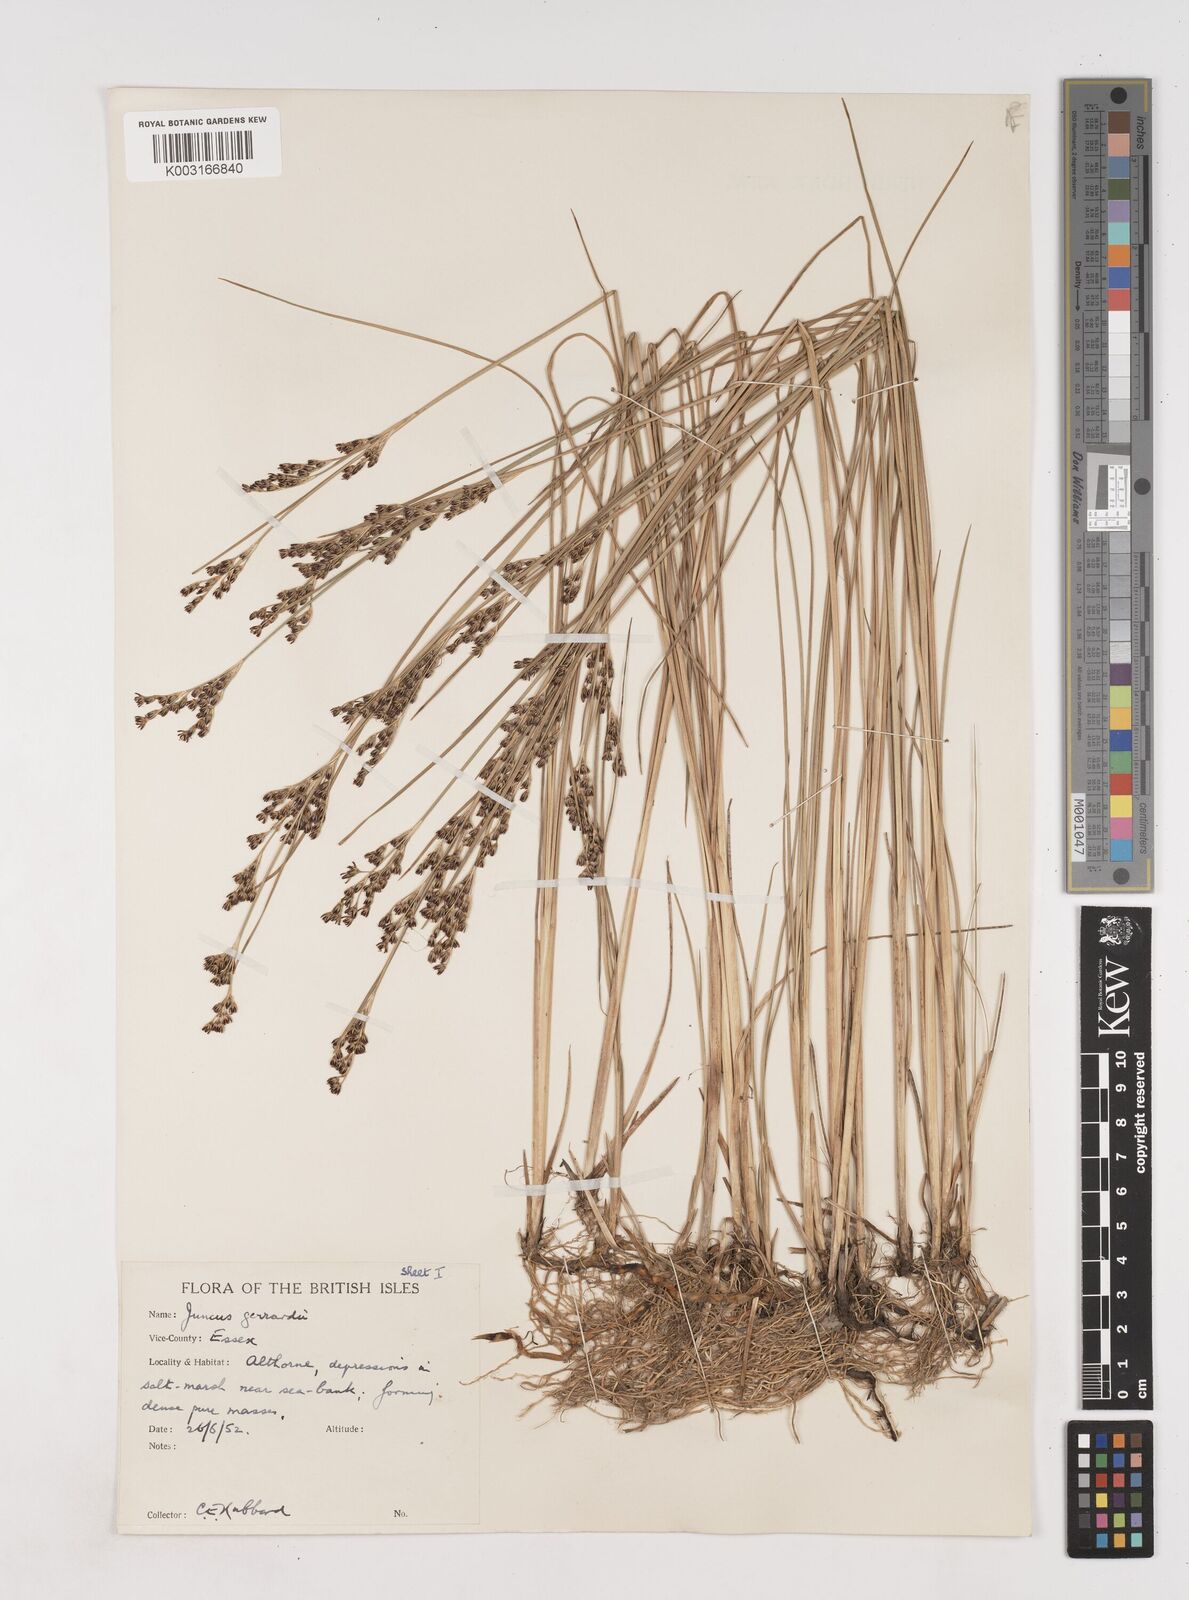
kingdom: Plantae
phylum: Tracheophyta
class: Liliopsida
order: Poales
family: Juncaceae
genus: Juncus
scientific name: Juncus gerardi
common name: Saltmarsh rush
